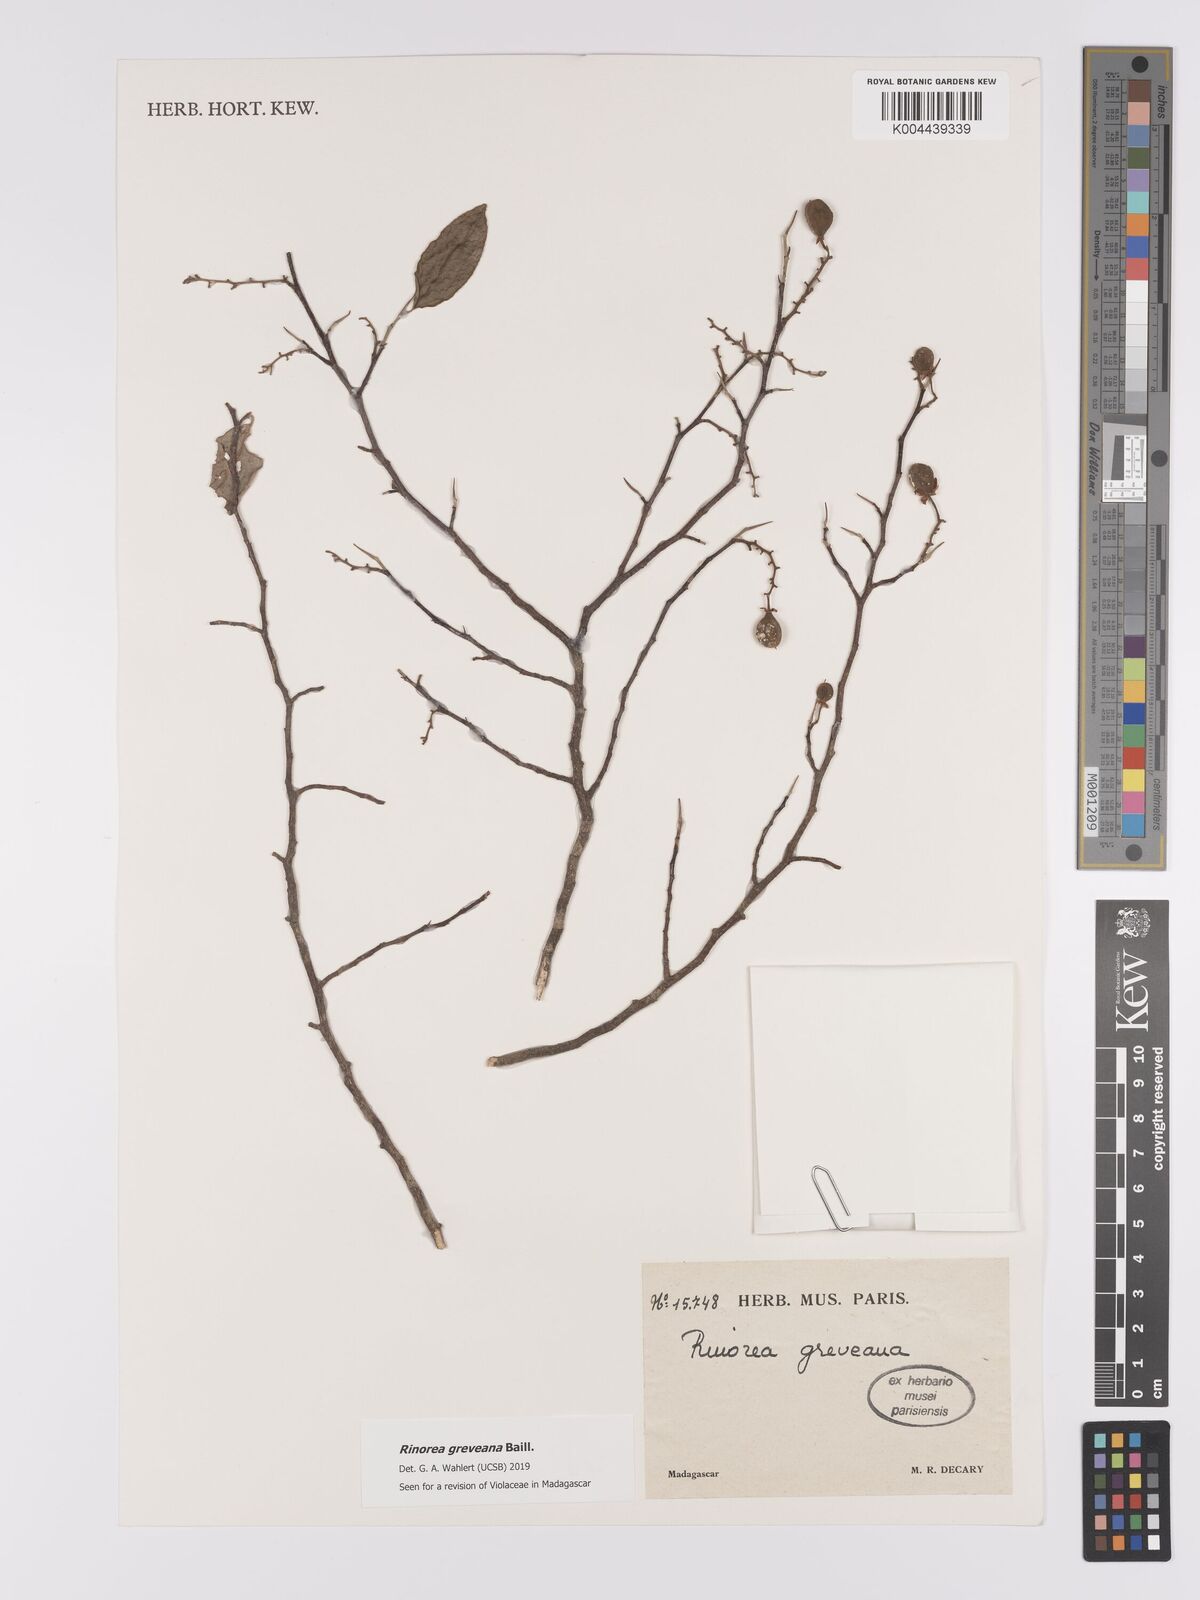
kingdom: Plantae
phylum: Tracheophyta
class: Magnoliopsida
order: Malpighiales
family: Violaceae
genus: Rinorea
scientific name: Rinorea greveana
